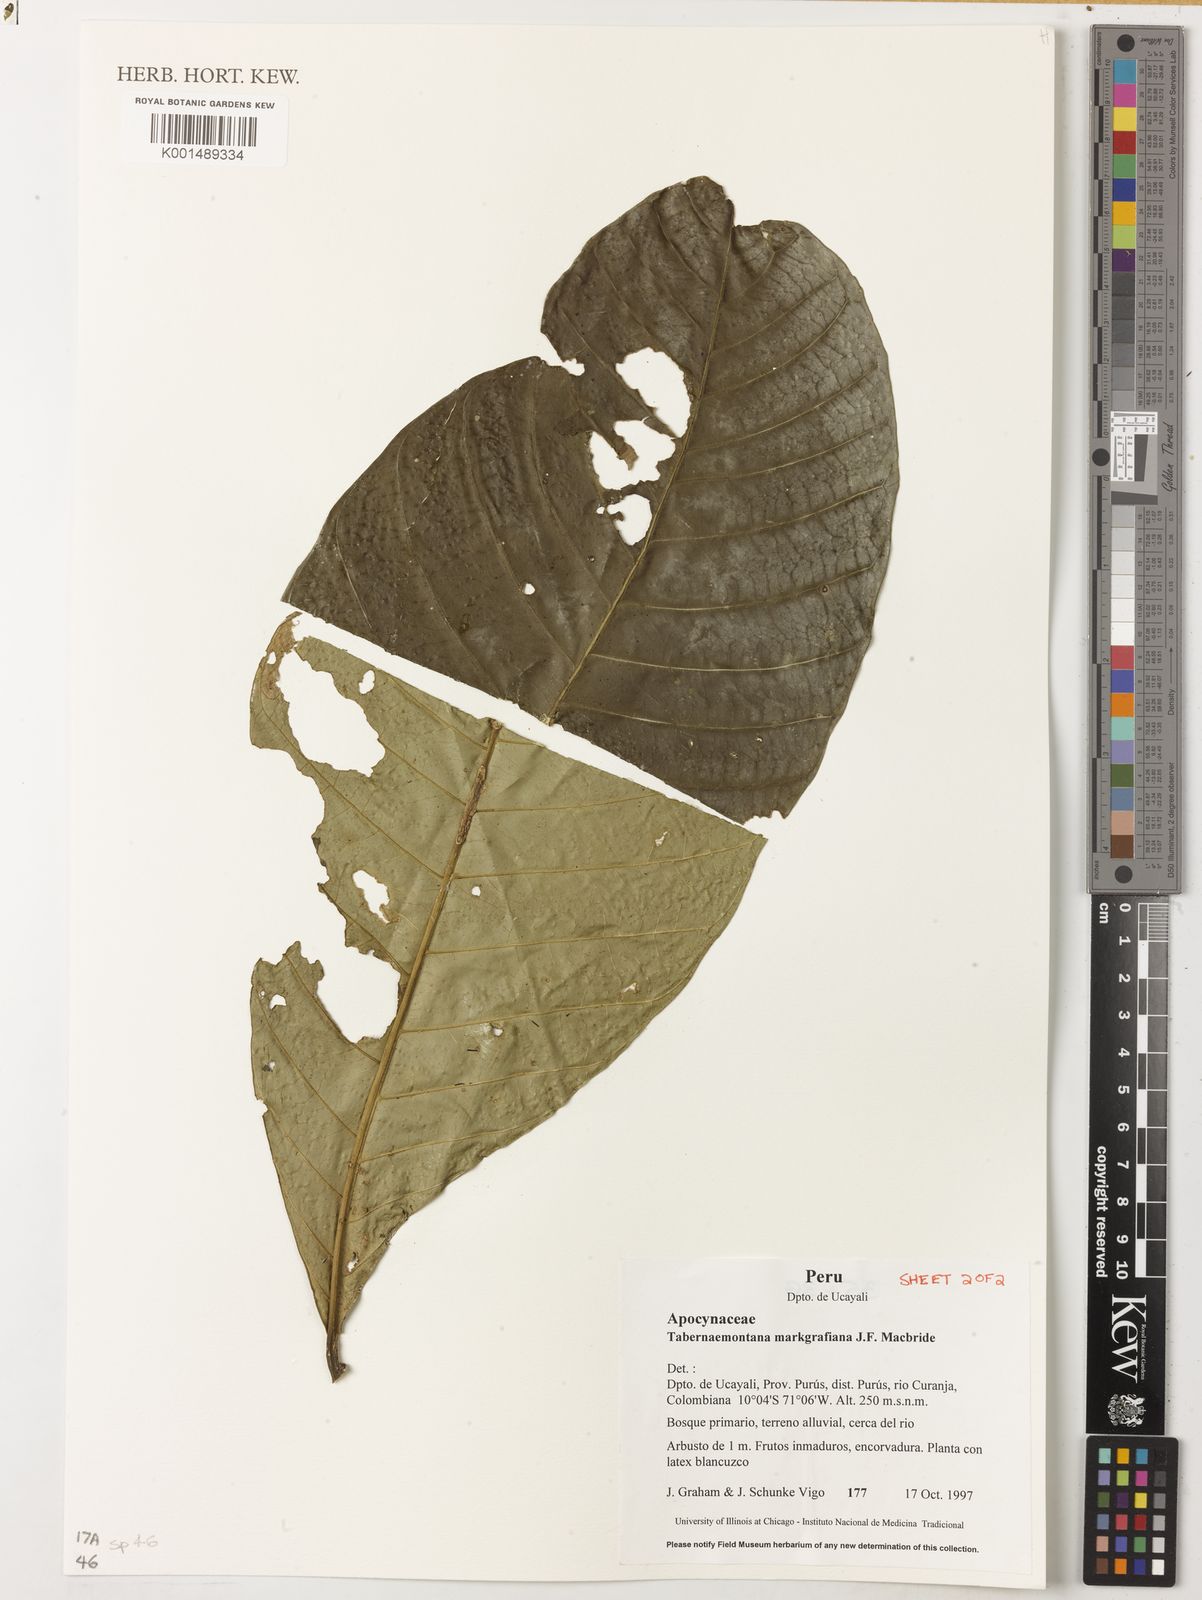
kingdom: Plantae
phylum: Tracheophyta
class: Magnoliopsida
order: Gentianales
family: Apocynaceae
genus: Tabernaemontana
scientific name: Tabernaemontana markgrafiana
